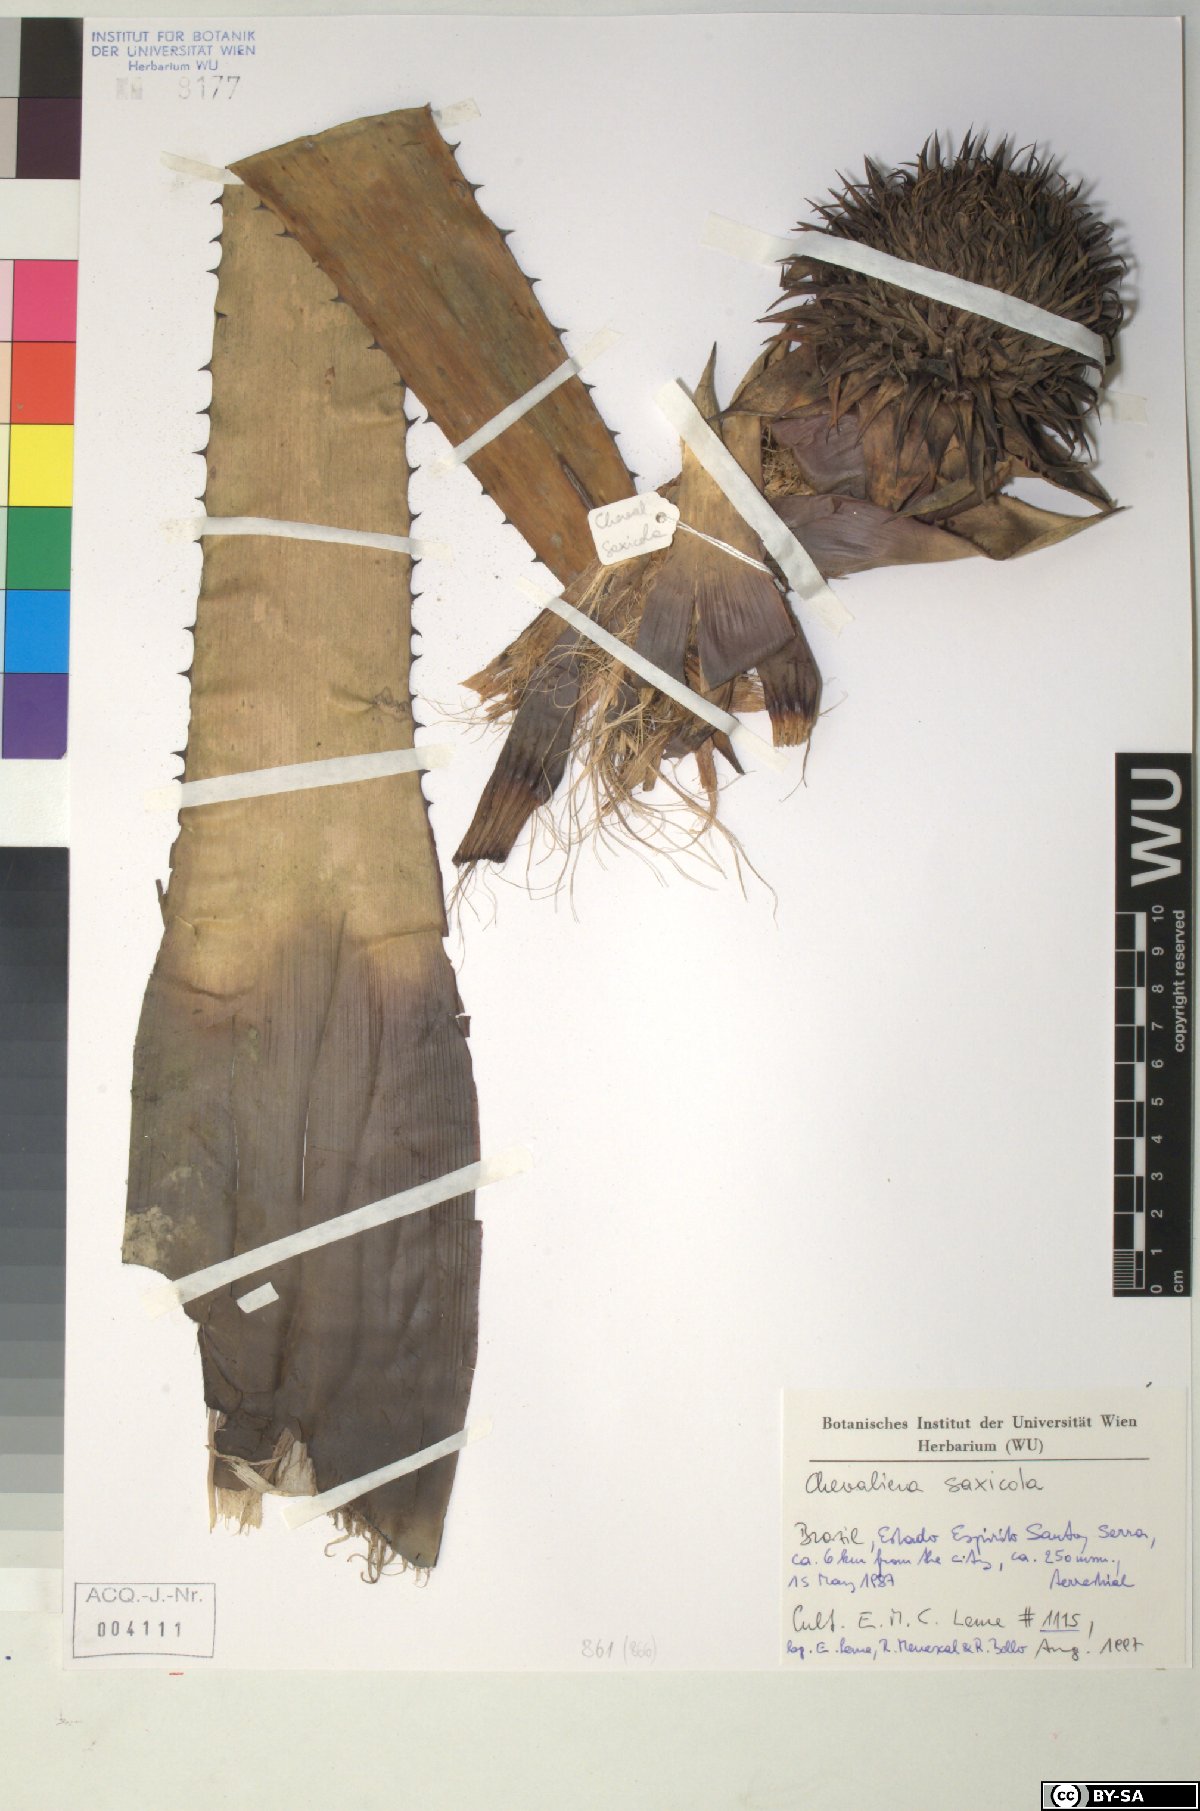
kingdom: Plantae
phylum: Tracheophyta
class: Liliopsida
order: Poales
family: Bromeliaceae
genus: Karawata
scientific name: Karawata saxicola
